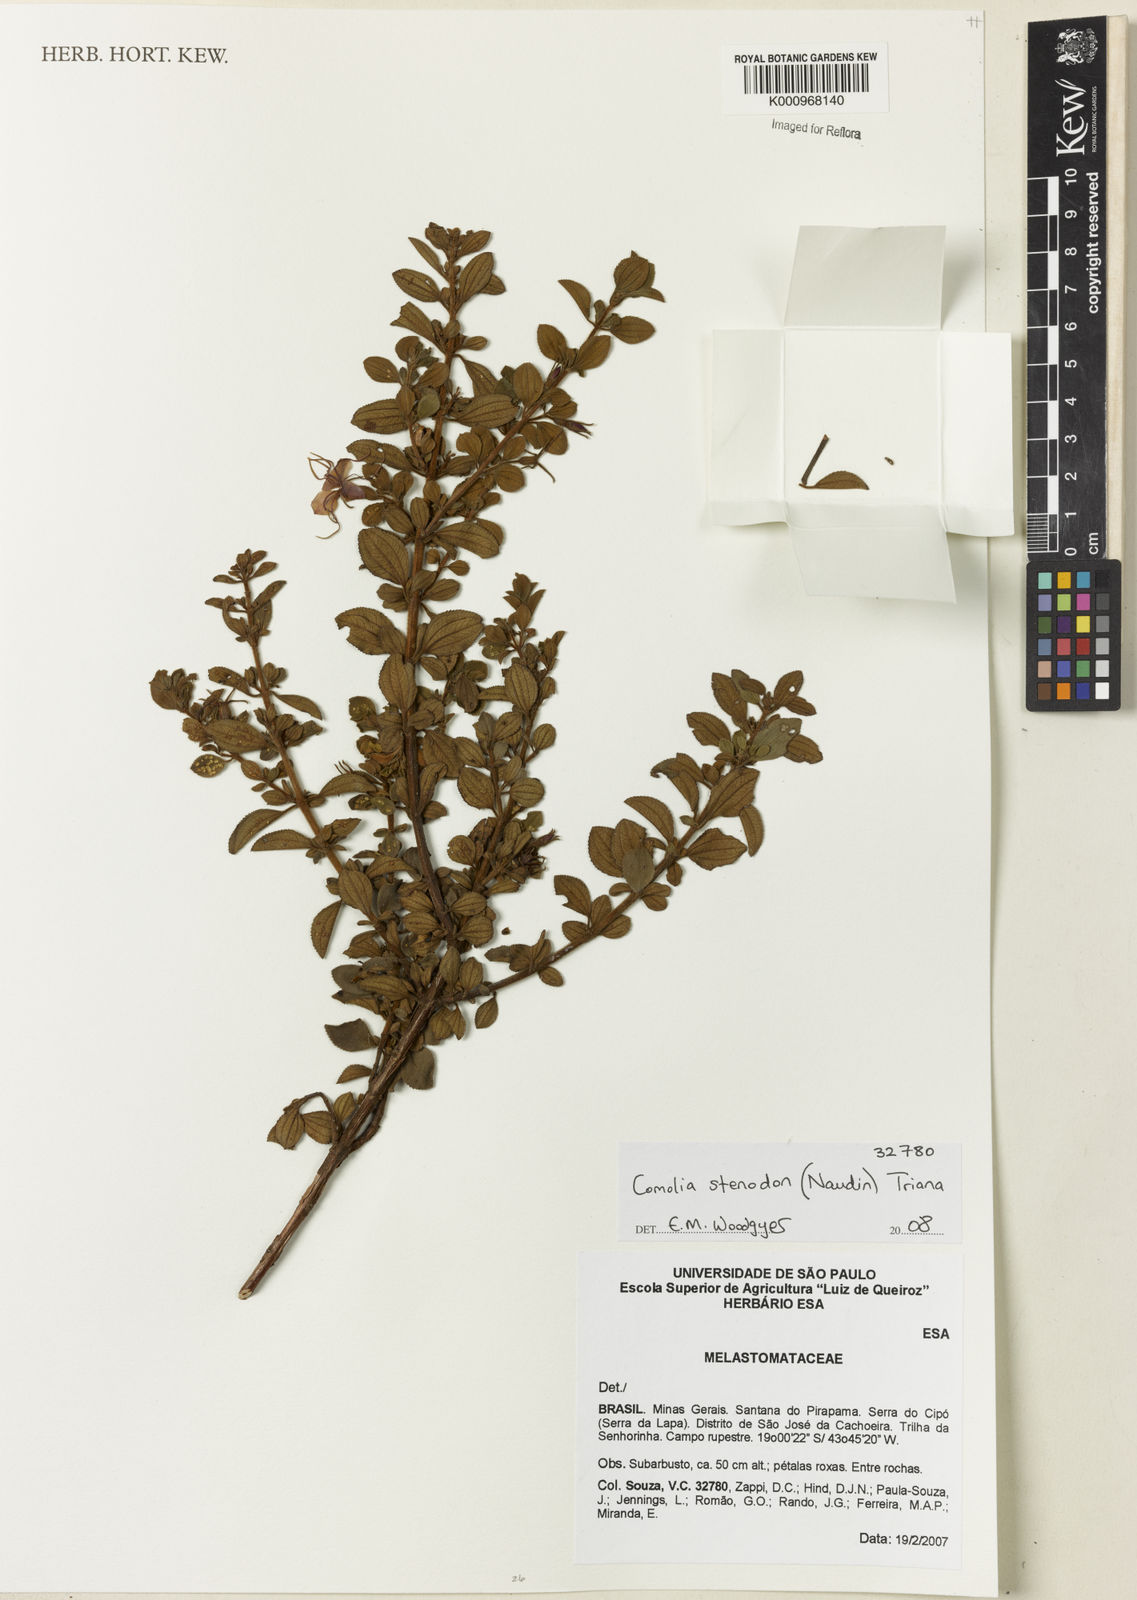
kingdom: Plantae
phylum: Tracheophyta
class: Magnoliopsida
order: Myrtales
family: Melastomataceae
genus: Fritzschia
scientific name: Fritzschia stenodon
